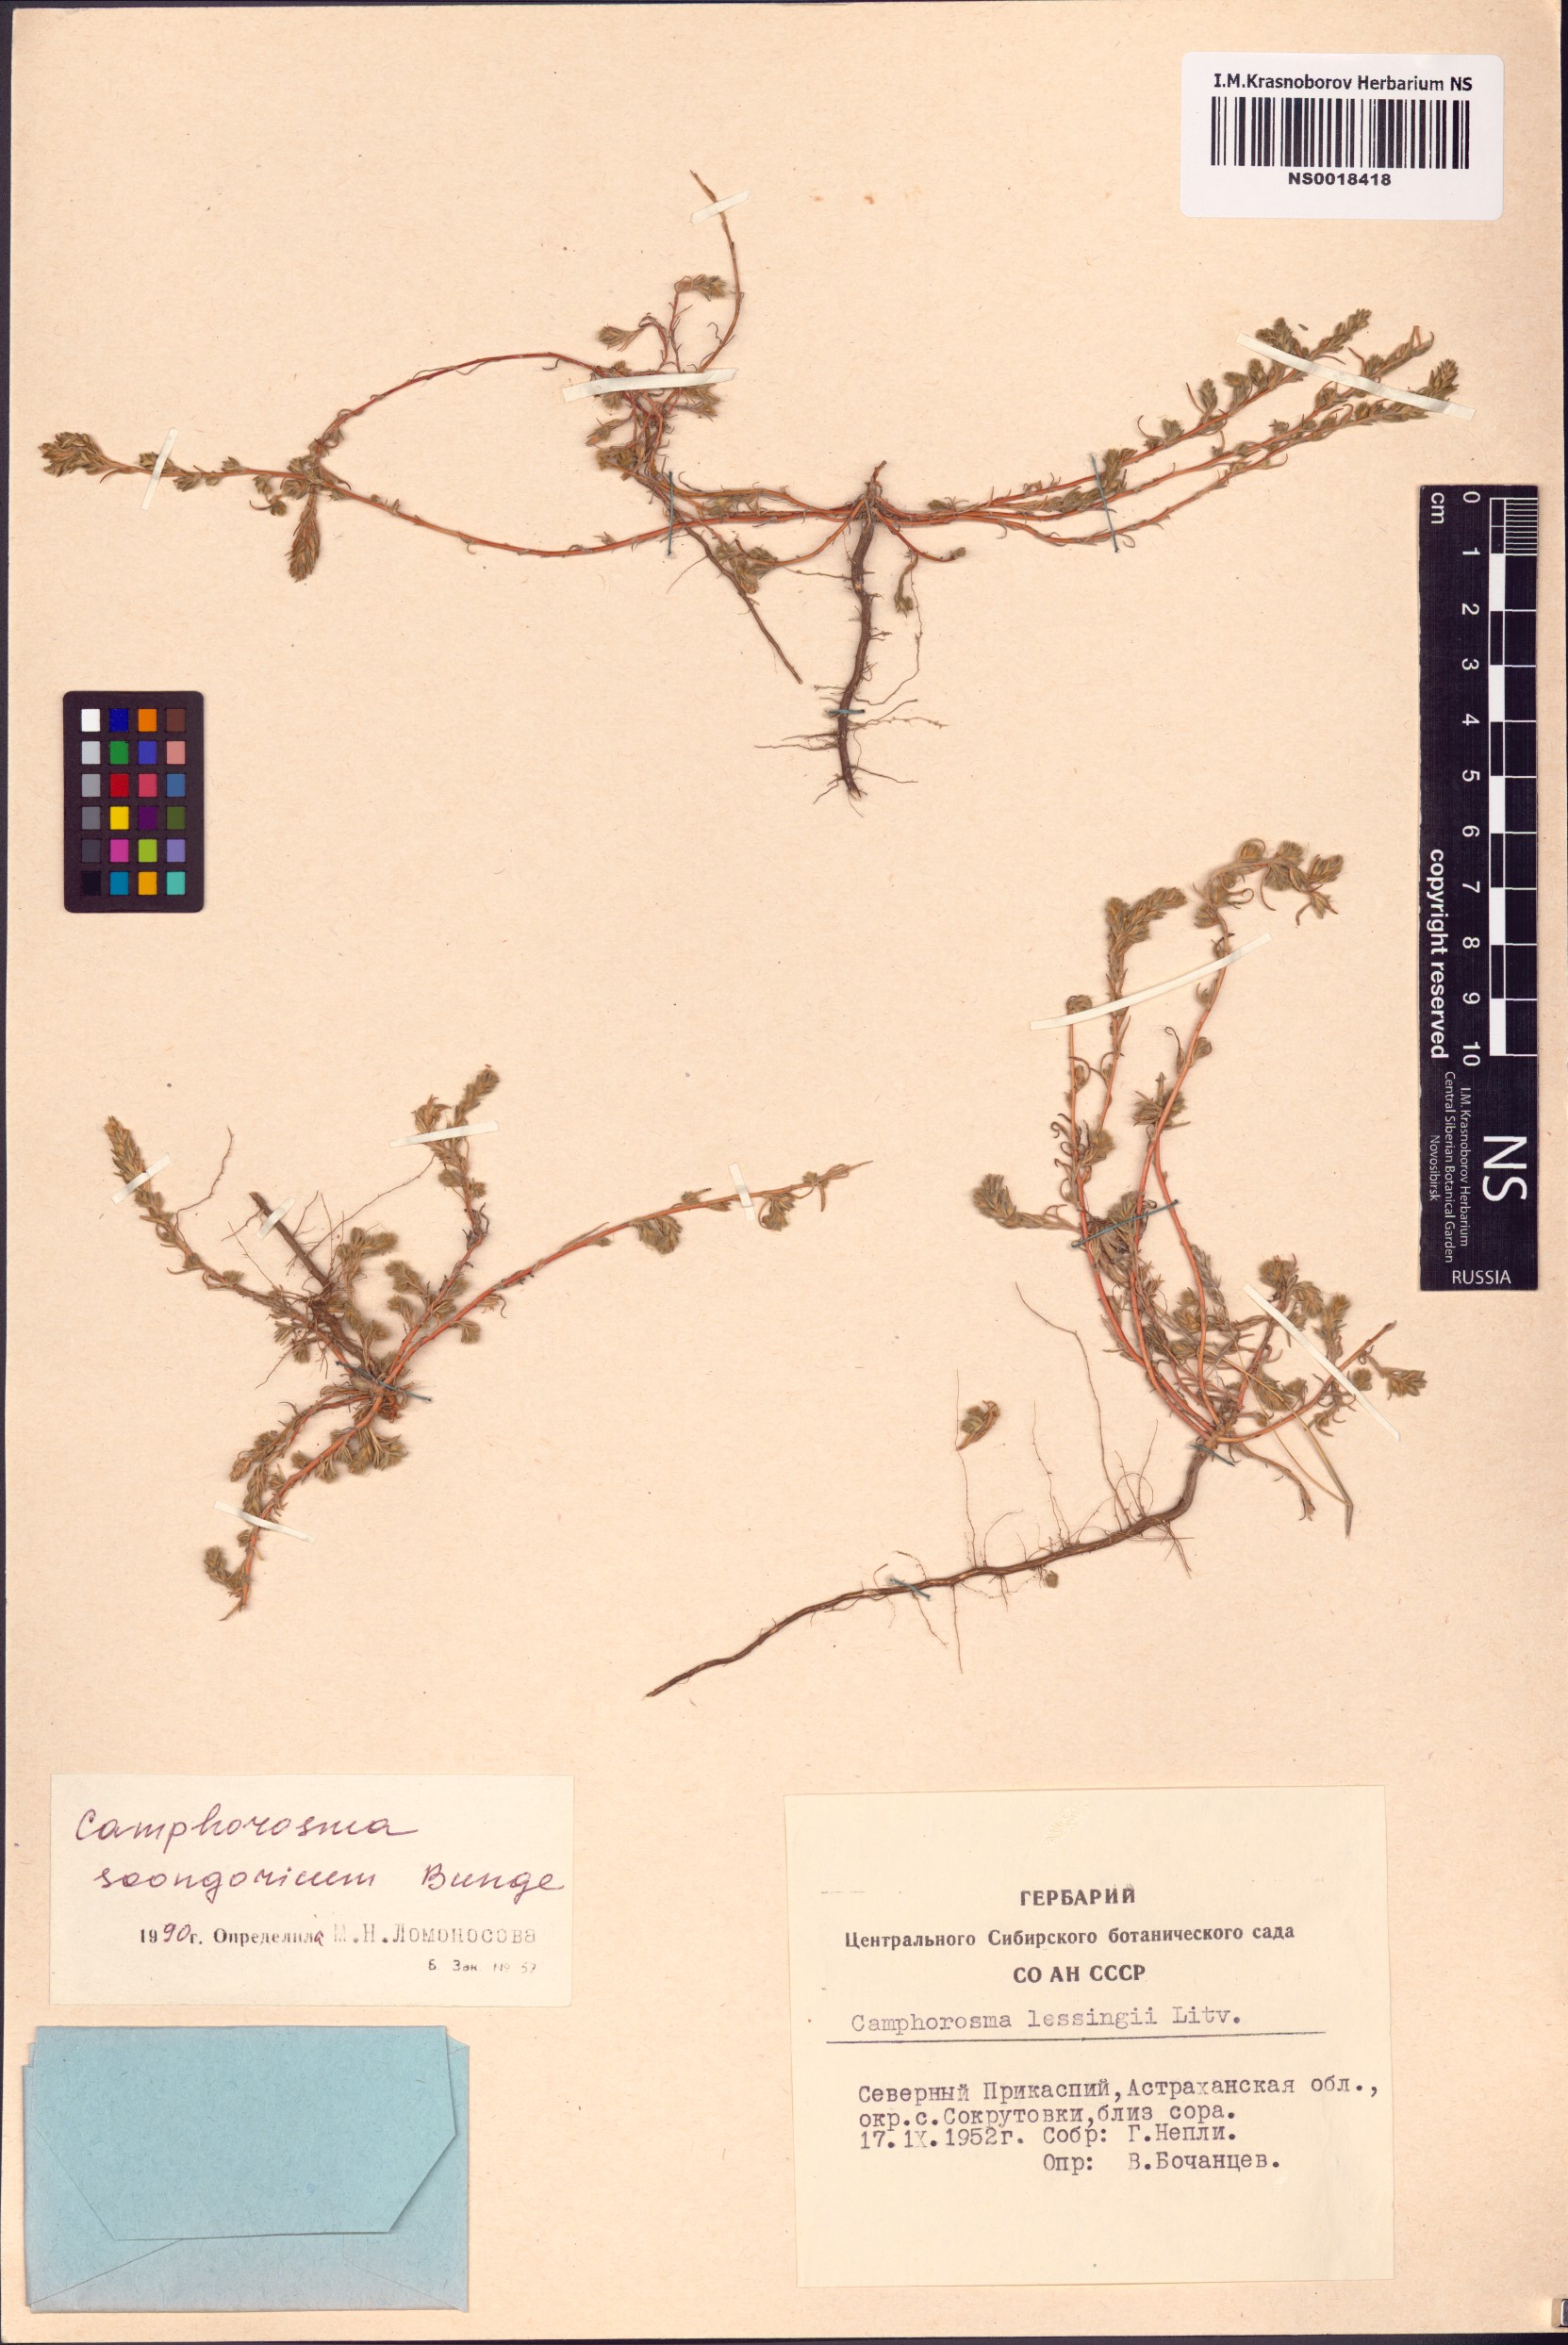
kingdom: Plantae
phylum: Tracheophyta
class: Magnoliopsida
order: Caryophyllales
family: Amaranthaceae
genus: Camphorosma
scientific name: Camphorosma songorica
